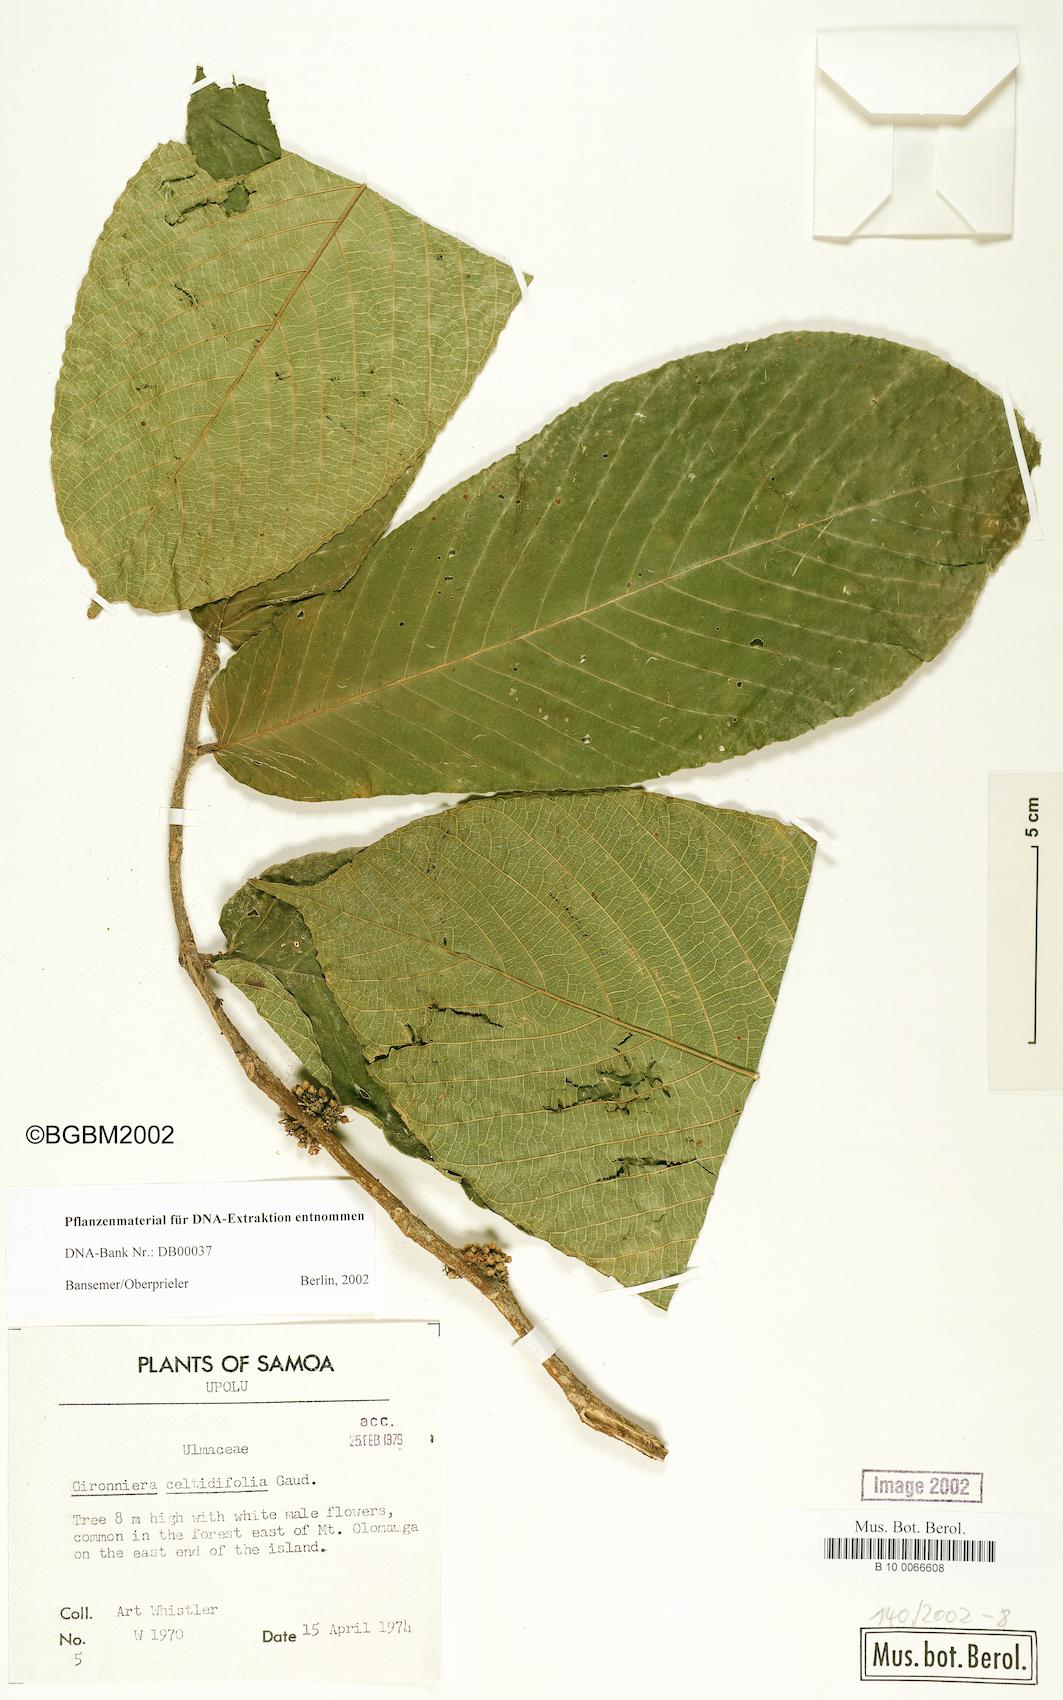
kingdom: Plantae
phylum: Tracheophyta
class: Magnoliopsida
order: Rosales
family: Cannabaceae
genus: Gironniera
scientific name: Gironniera celtidifolia
